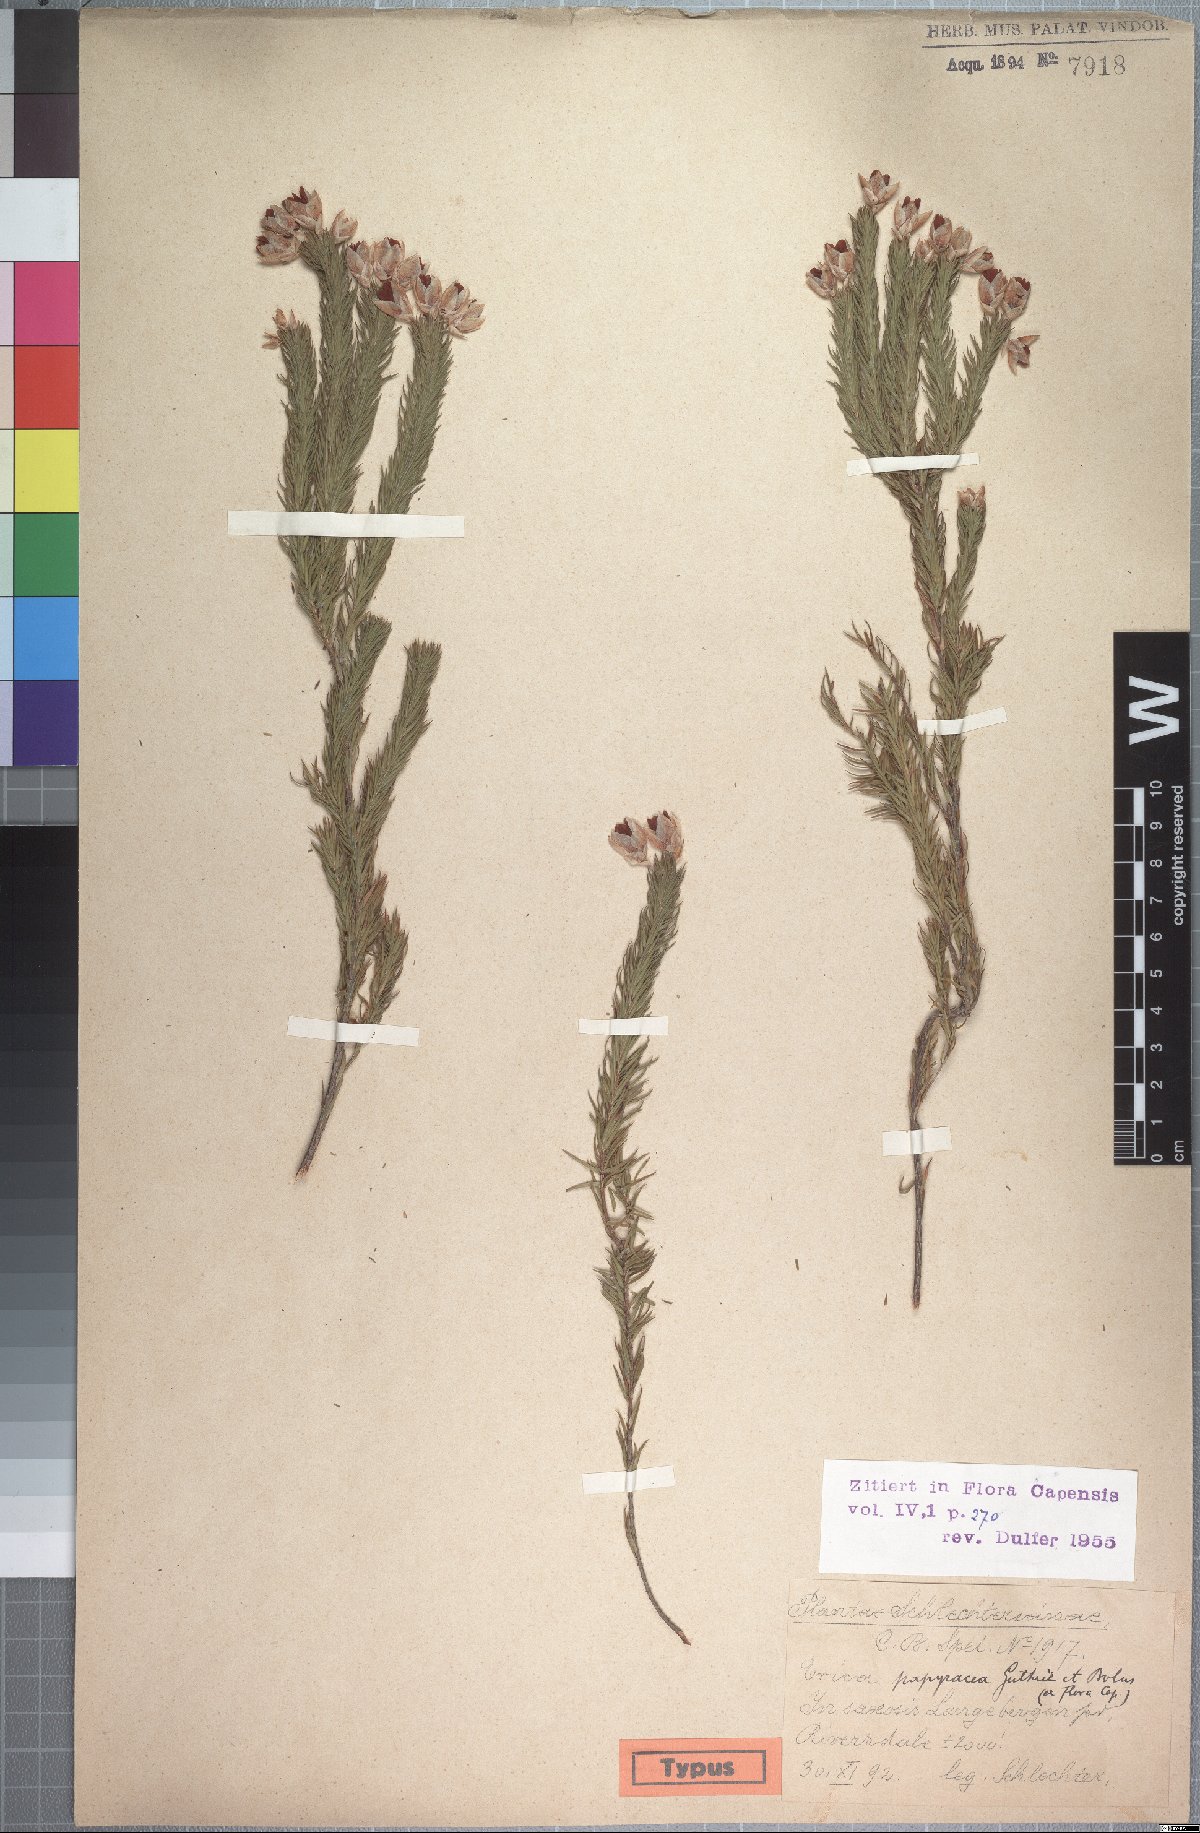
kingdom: Plantae
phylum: Tracheophyta
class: Magnoliopsida
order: Ericales
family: Ericaceae
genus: Erica
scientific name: Erica papyracea
